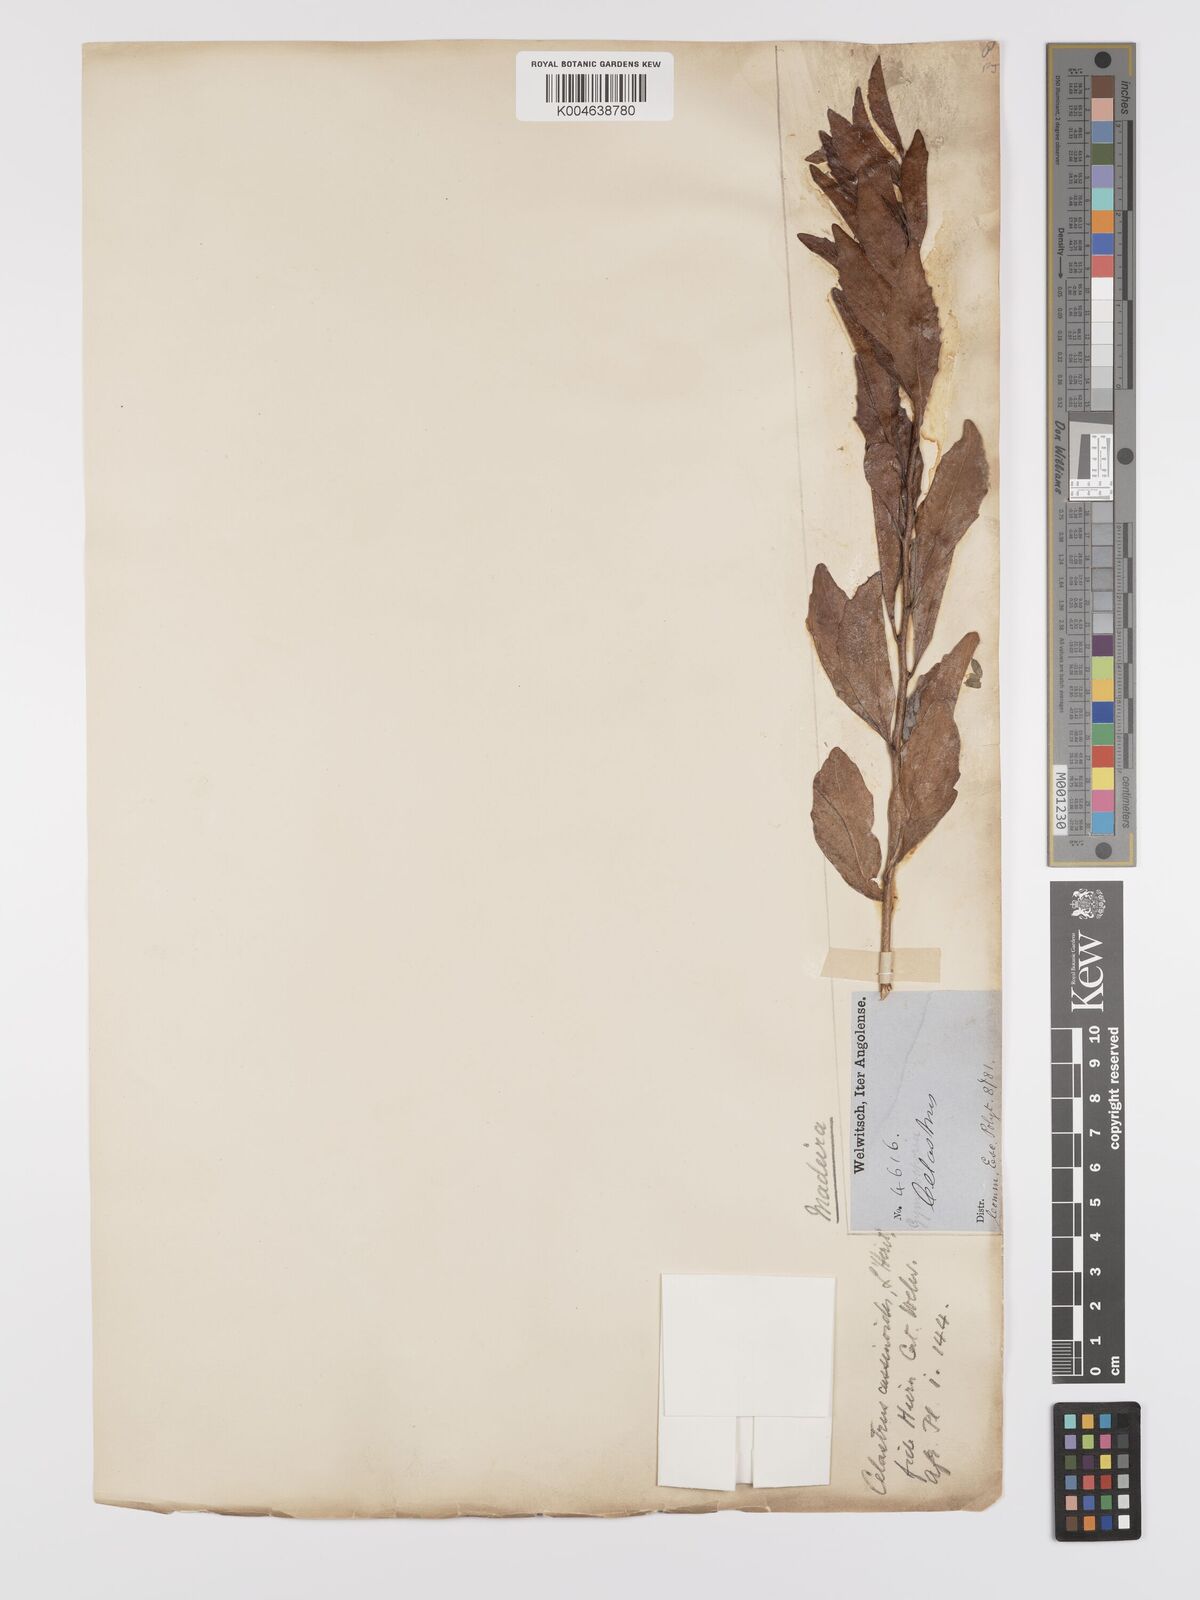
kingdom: Plantae
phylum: Tracheophyta
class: Magnoliopsida
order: Celastrales
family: Celastraceae
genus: Gymnosporia
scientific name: Gymnosporia cassinoides
